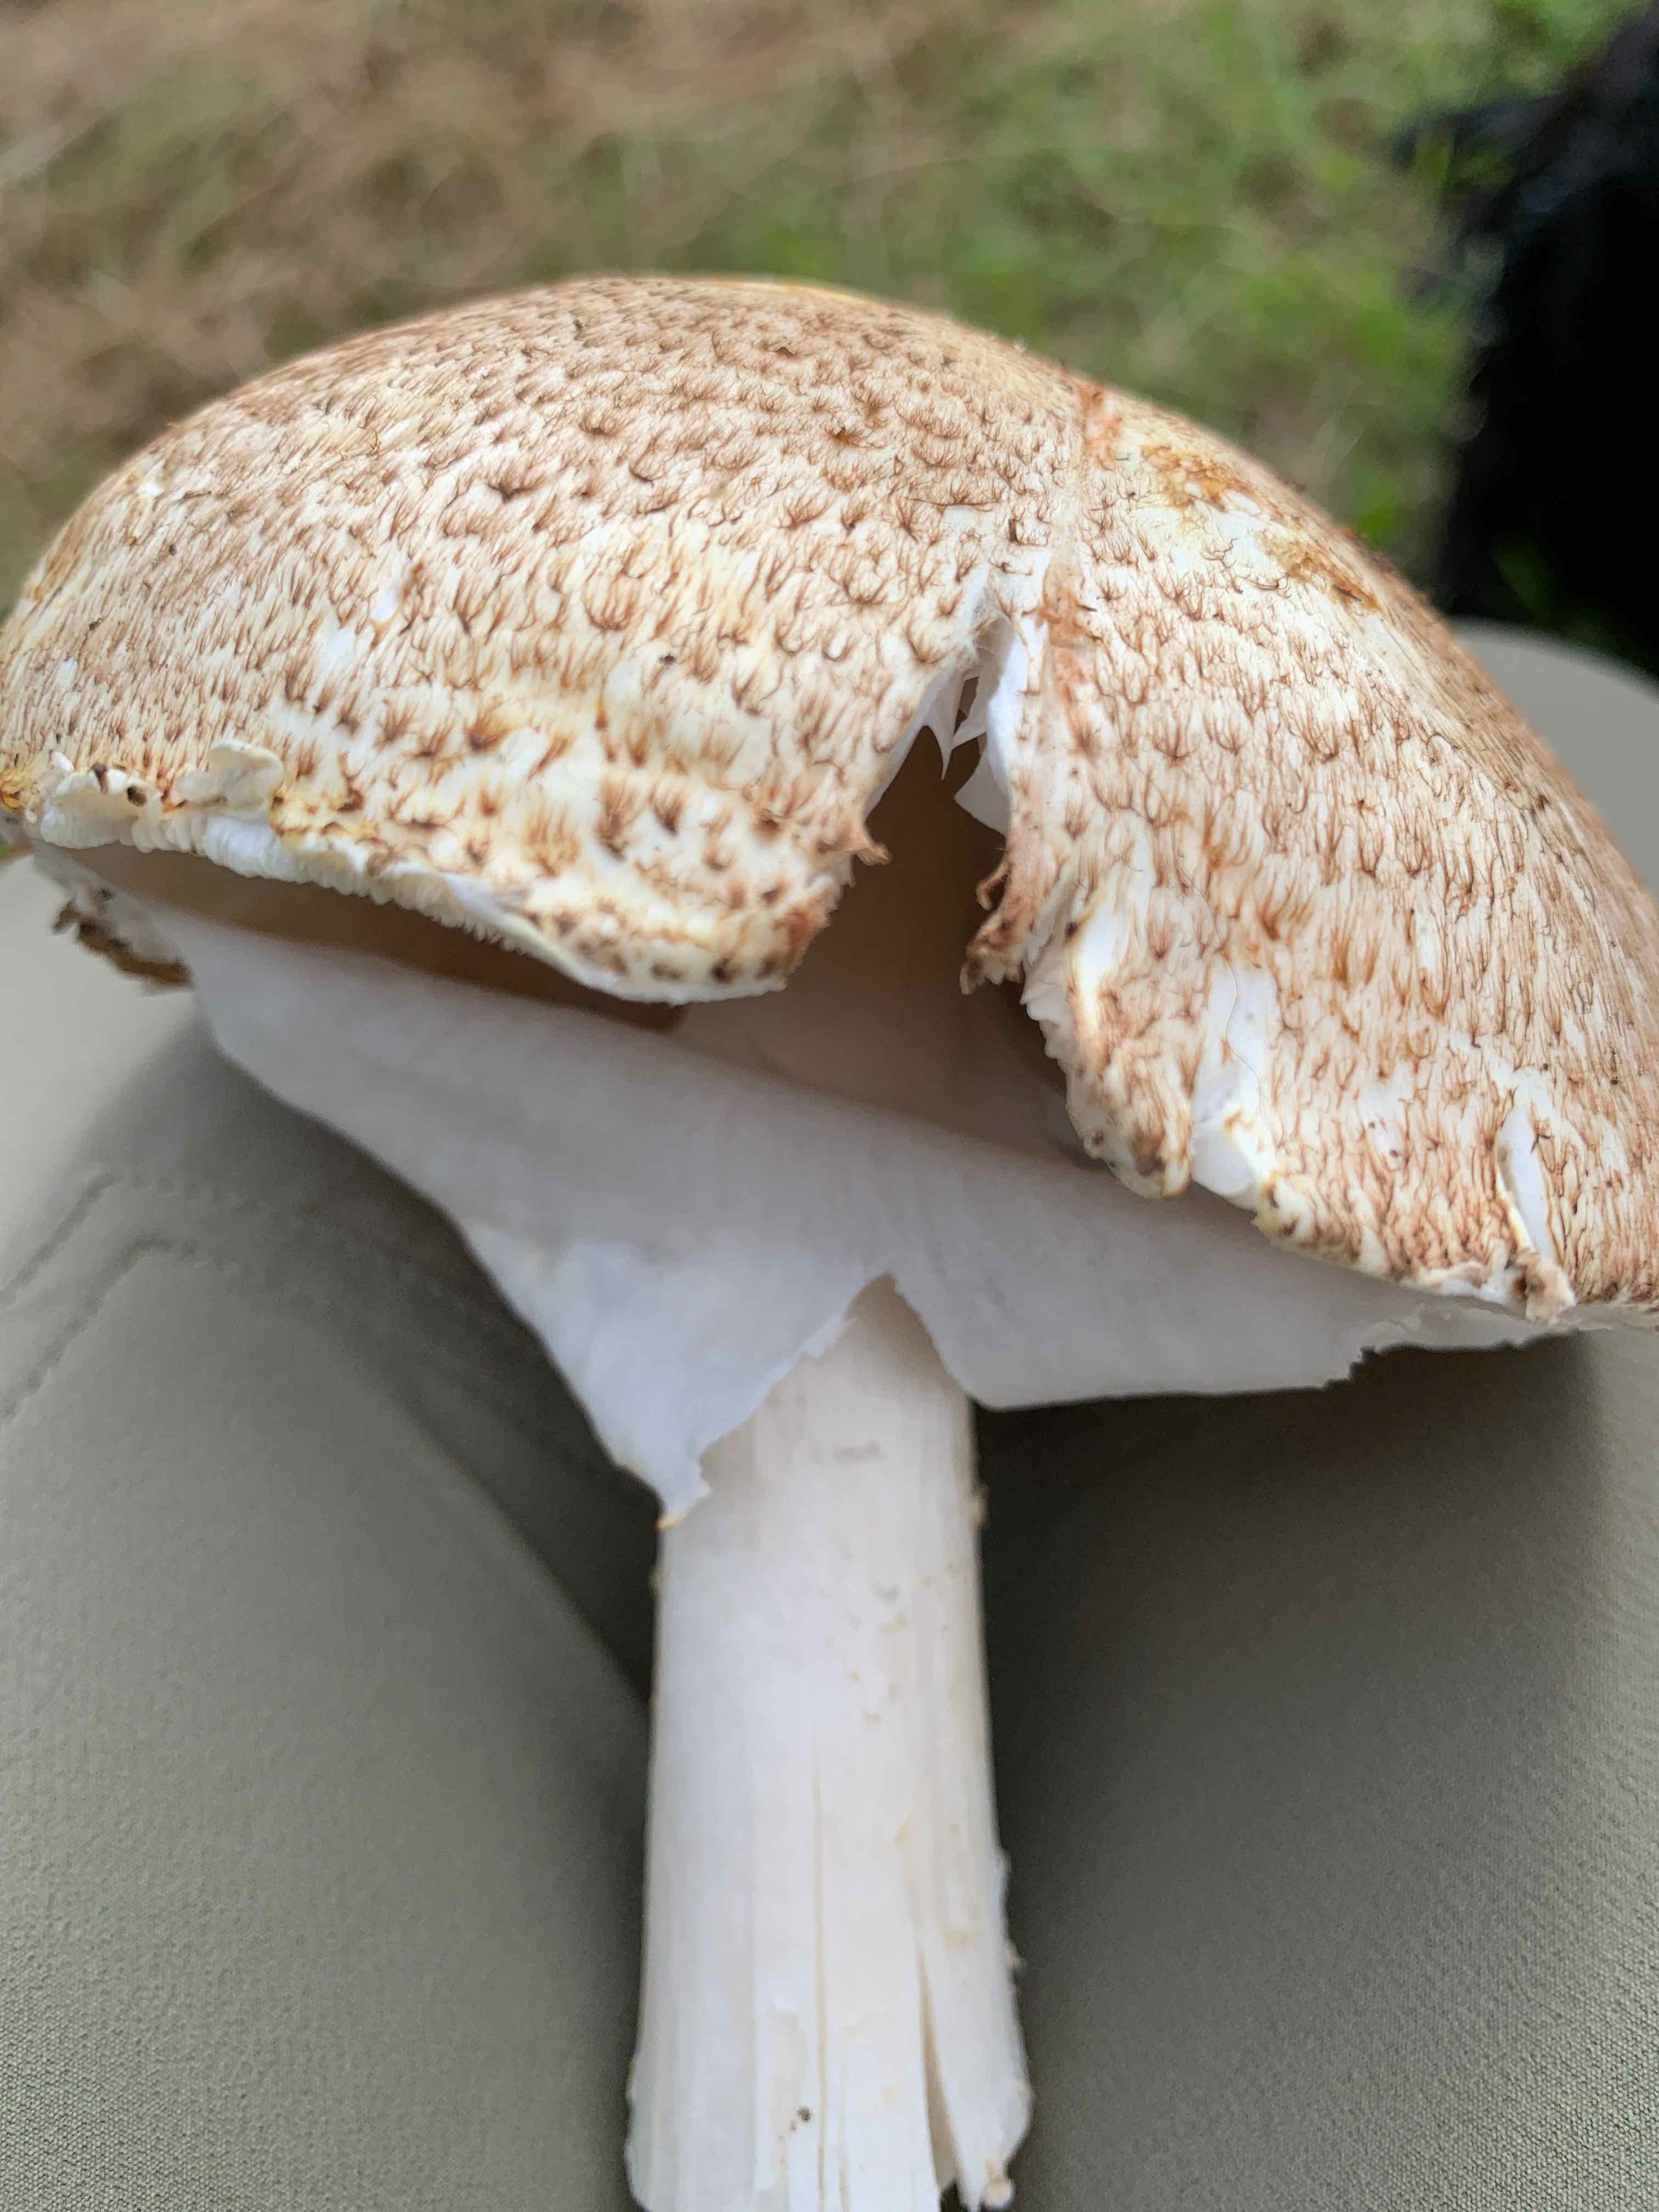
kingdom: Fungi
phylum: Basidiomycota
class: Agaricomycetes
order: Agaricales
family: Agaricaceae
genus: Agaricus
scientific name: Agaricus augustus
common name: prægtig champignon
